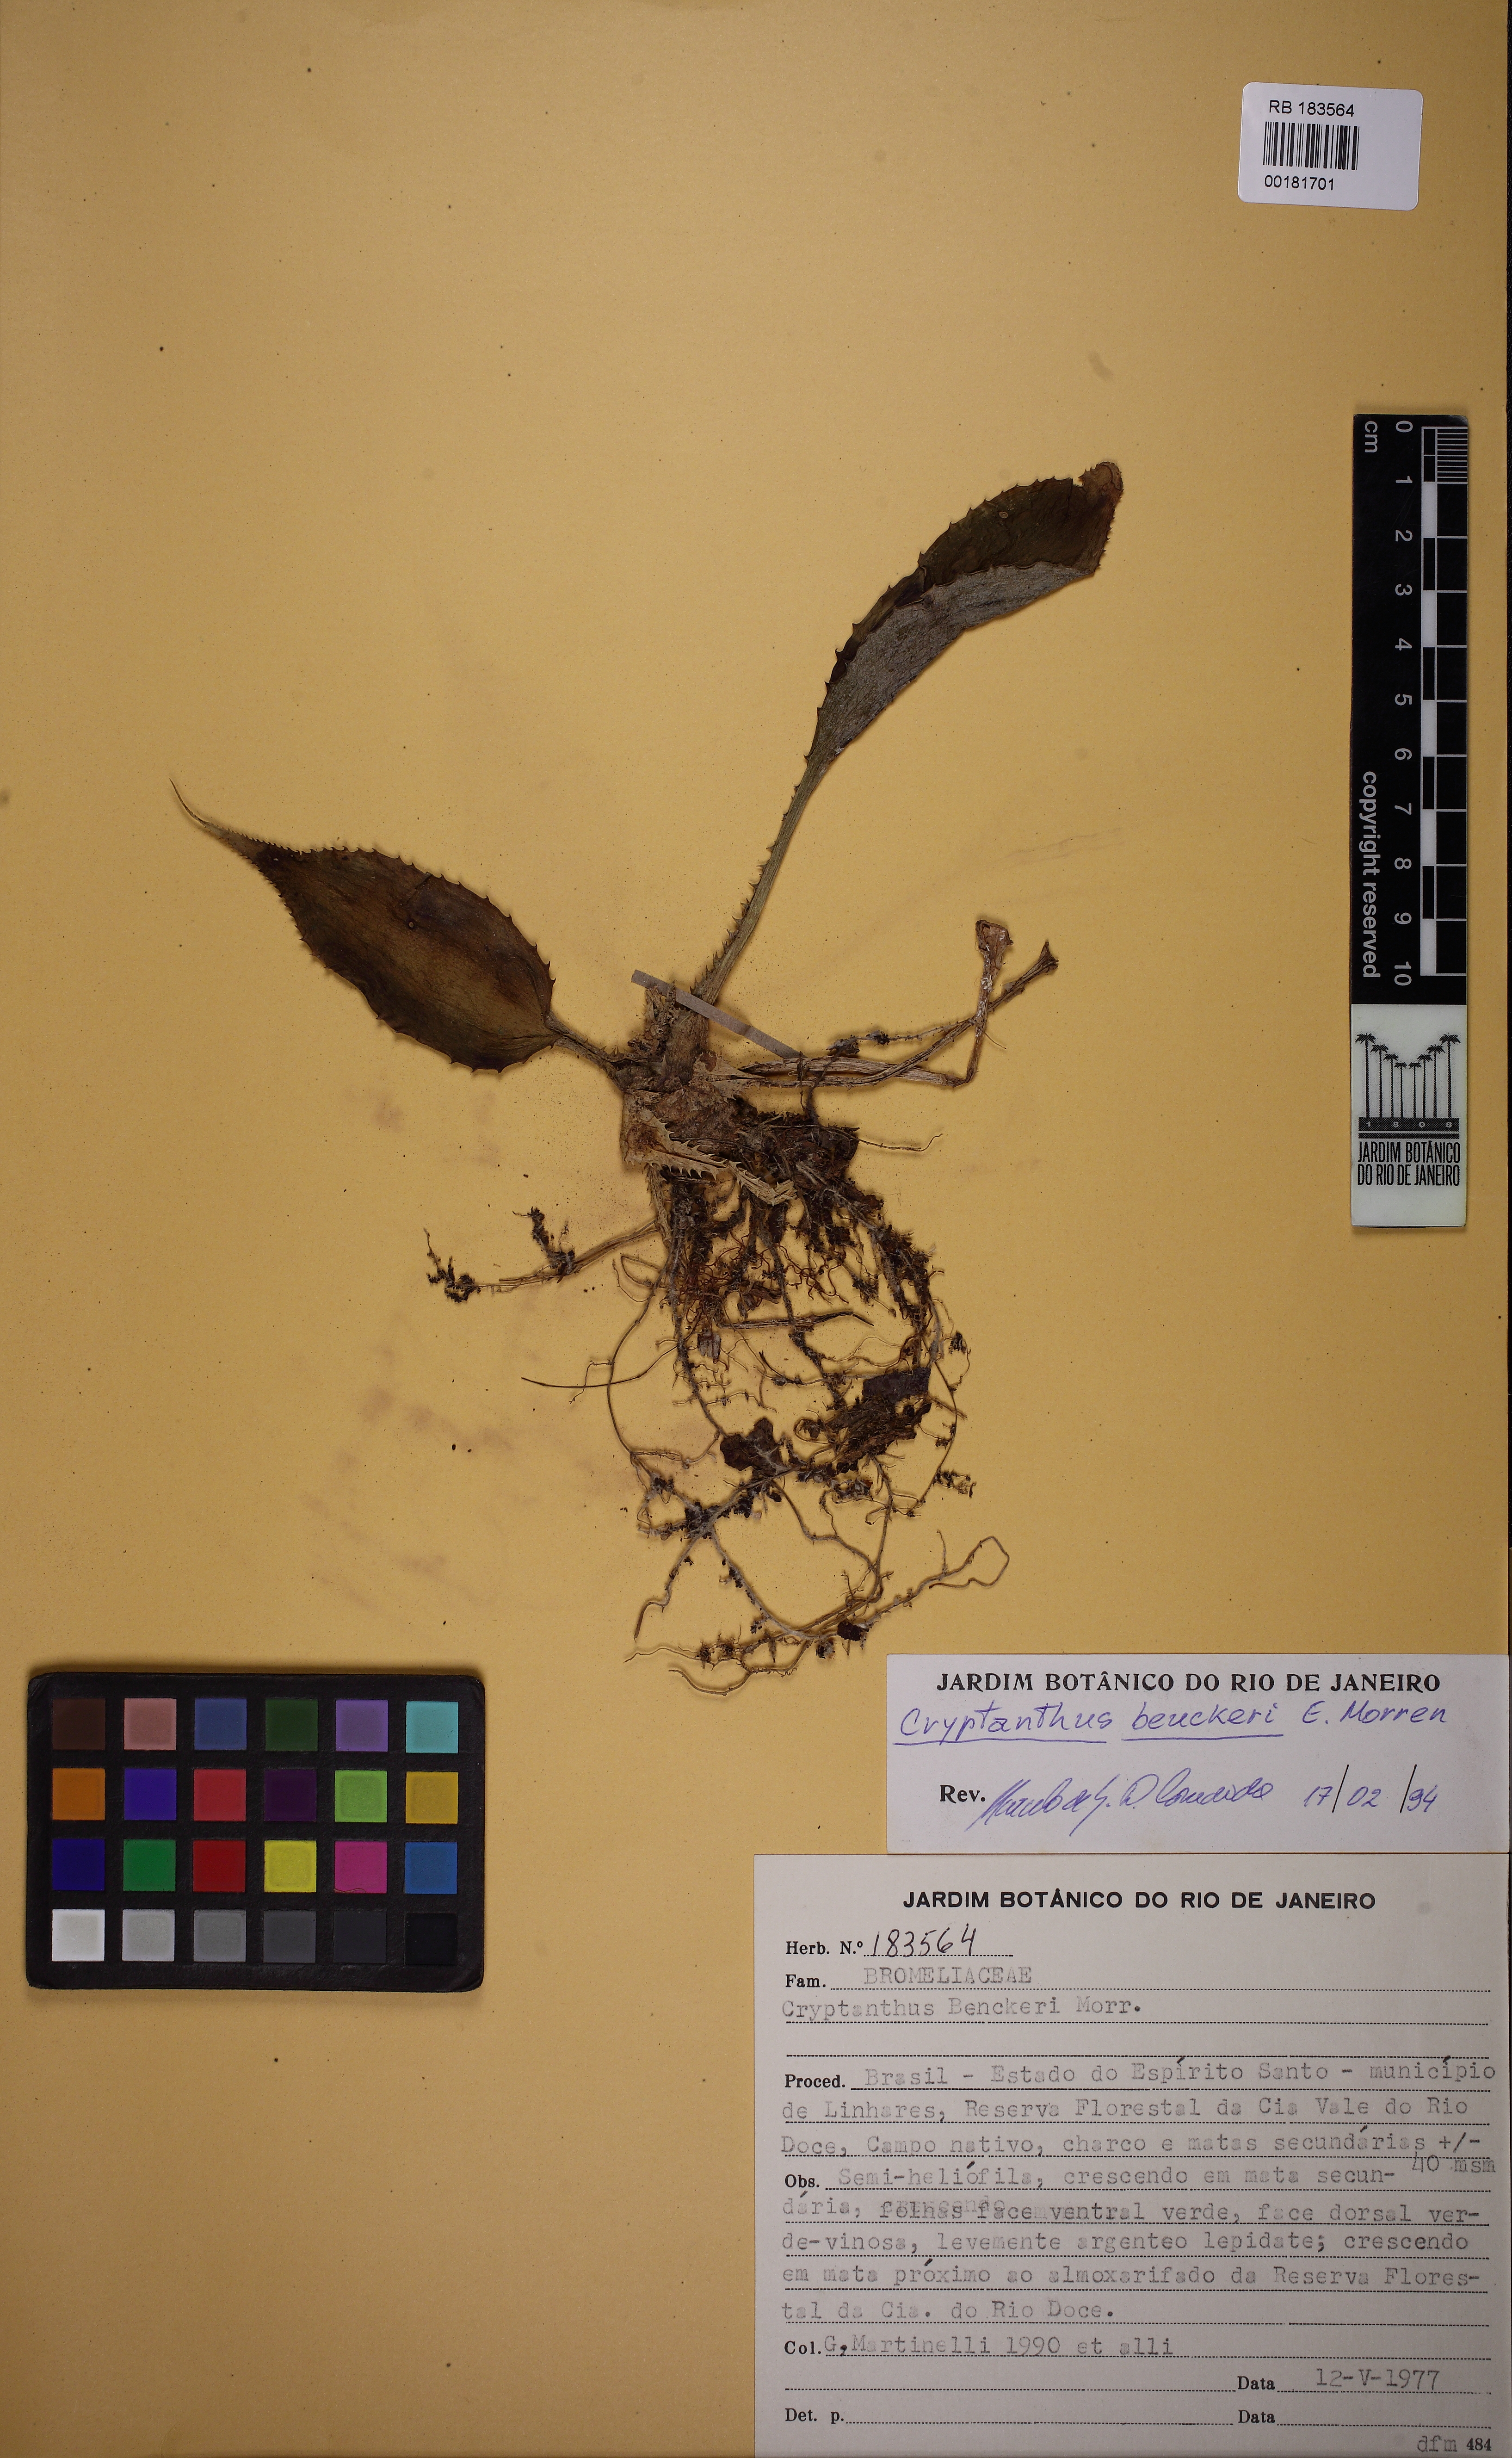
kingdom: Plantae
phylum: Tracheophyta
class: Liliopsida
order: Poales
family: Bromeliaceae
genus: Cryptanthus
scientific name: Cryptanthus beuckeri
